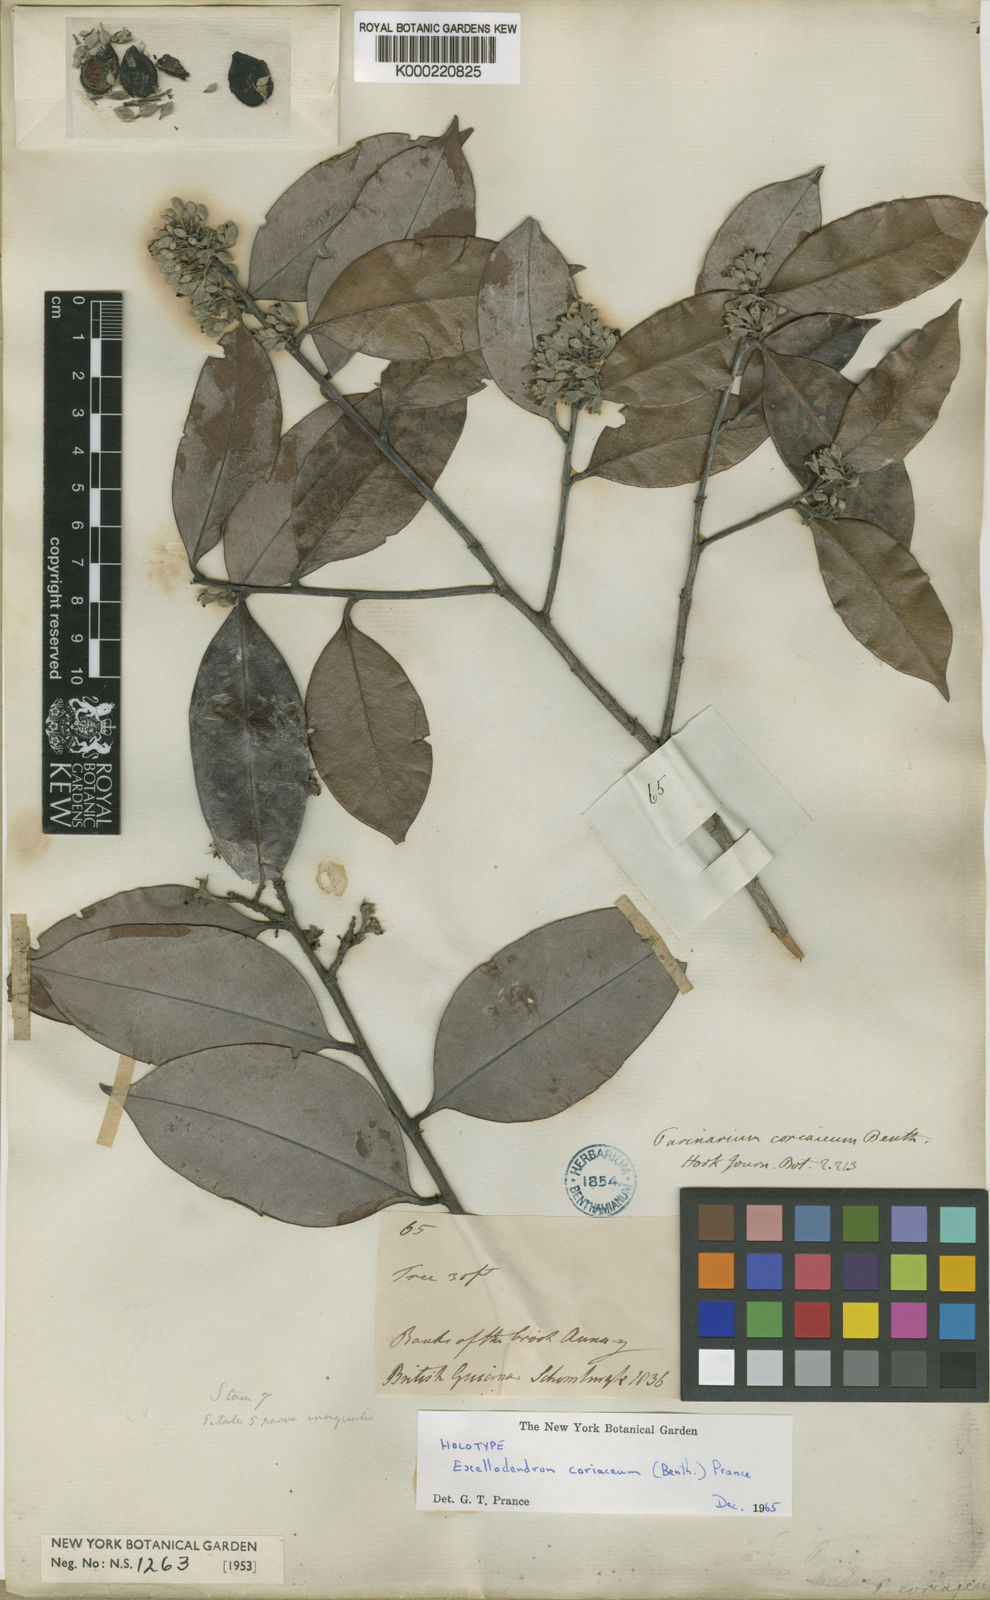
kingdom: Plantae
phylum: Tracheophyta
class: Magnoliopsida
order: Malpighiales
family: Chrysobalanaceae
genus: Exellodendron
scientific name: Exellodendron coriaceum
